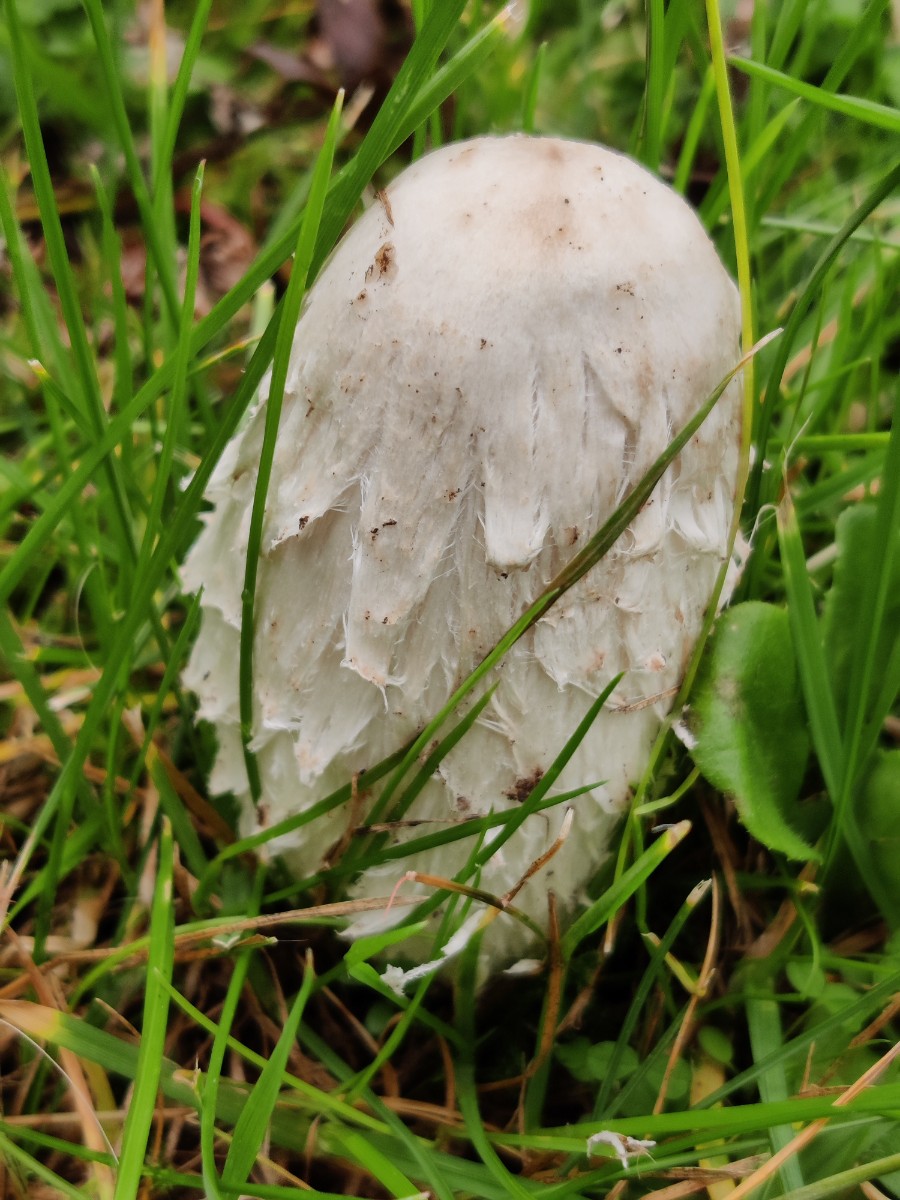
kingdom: Fungi
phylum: Basidiomycota
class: Agaricomycetes
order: Agaricales
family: Agaricaceae
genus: Coprinus
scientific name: Coprinus comatus
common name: stor parykhat
